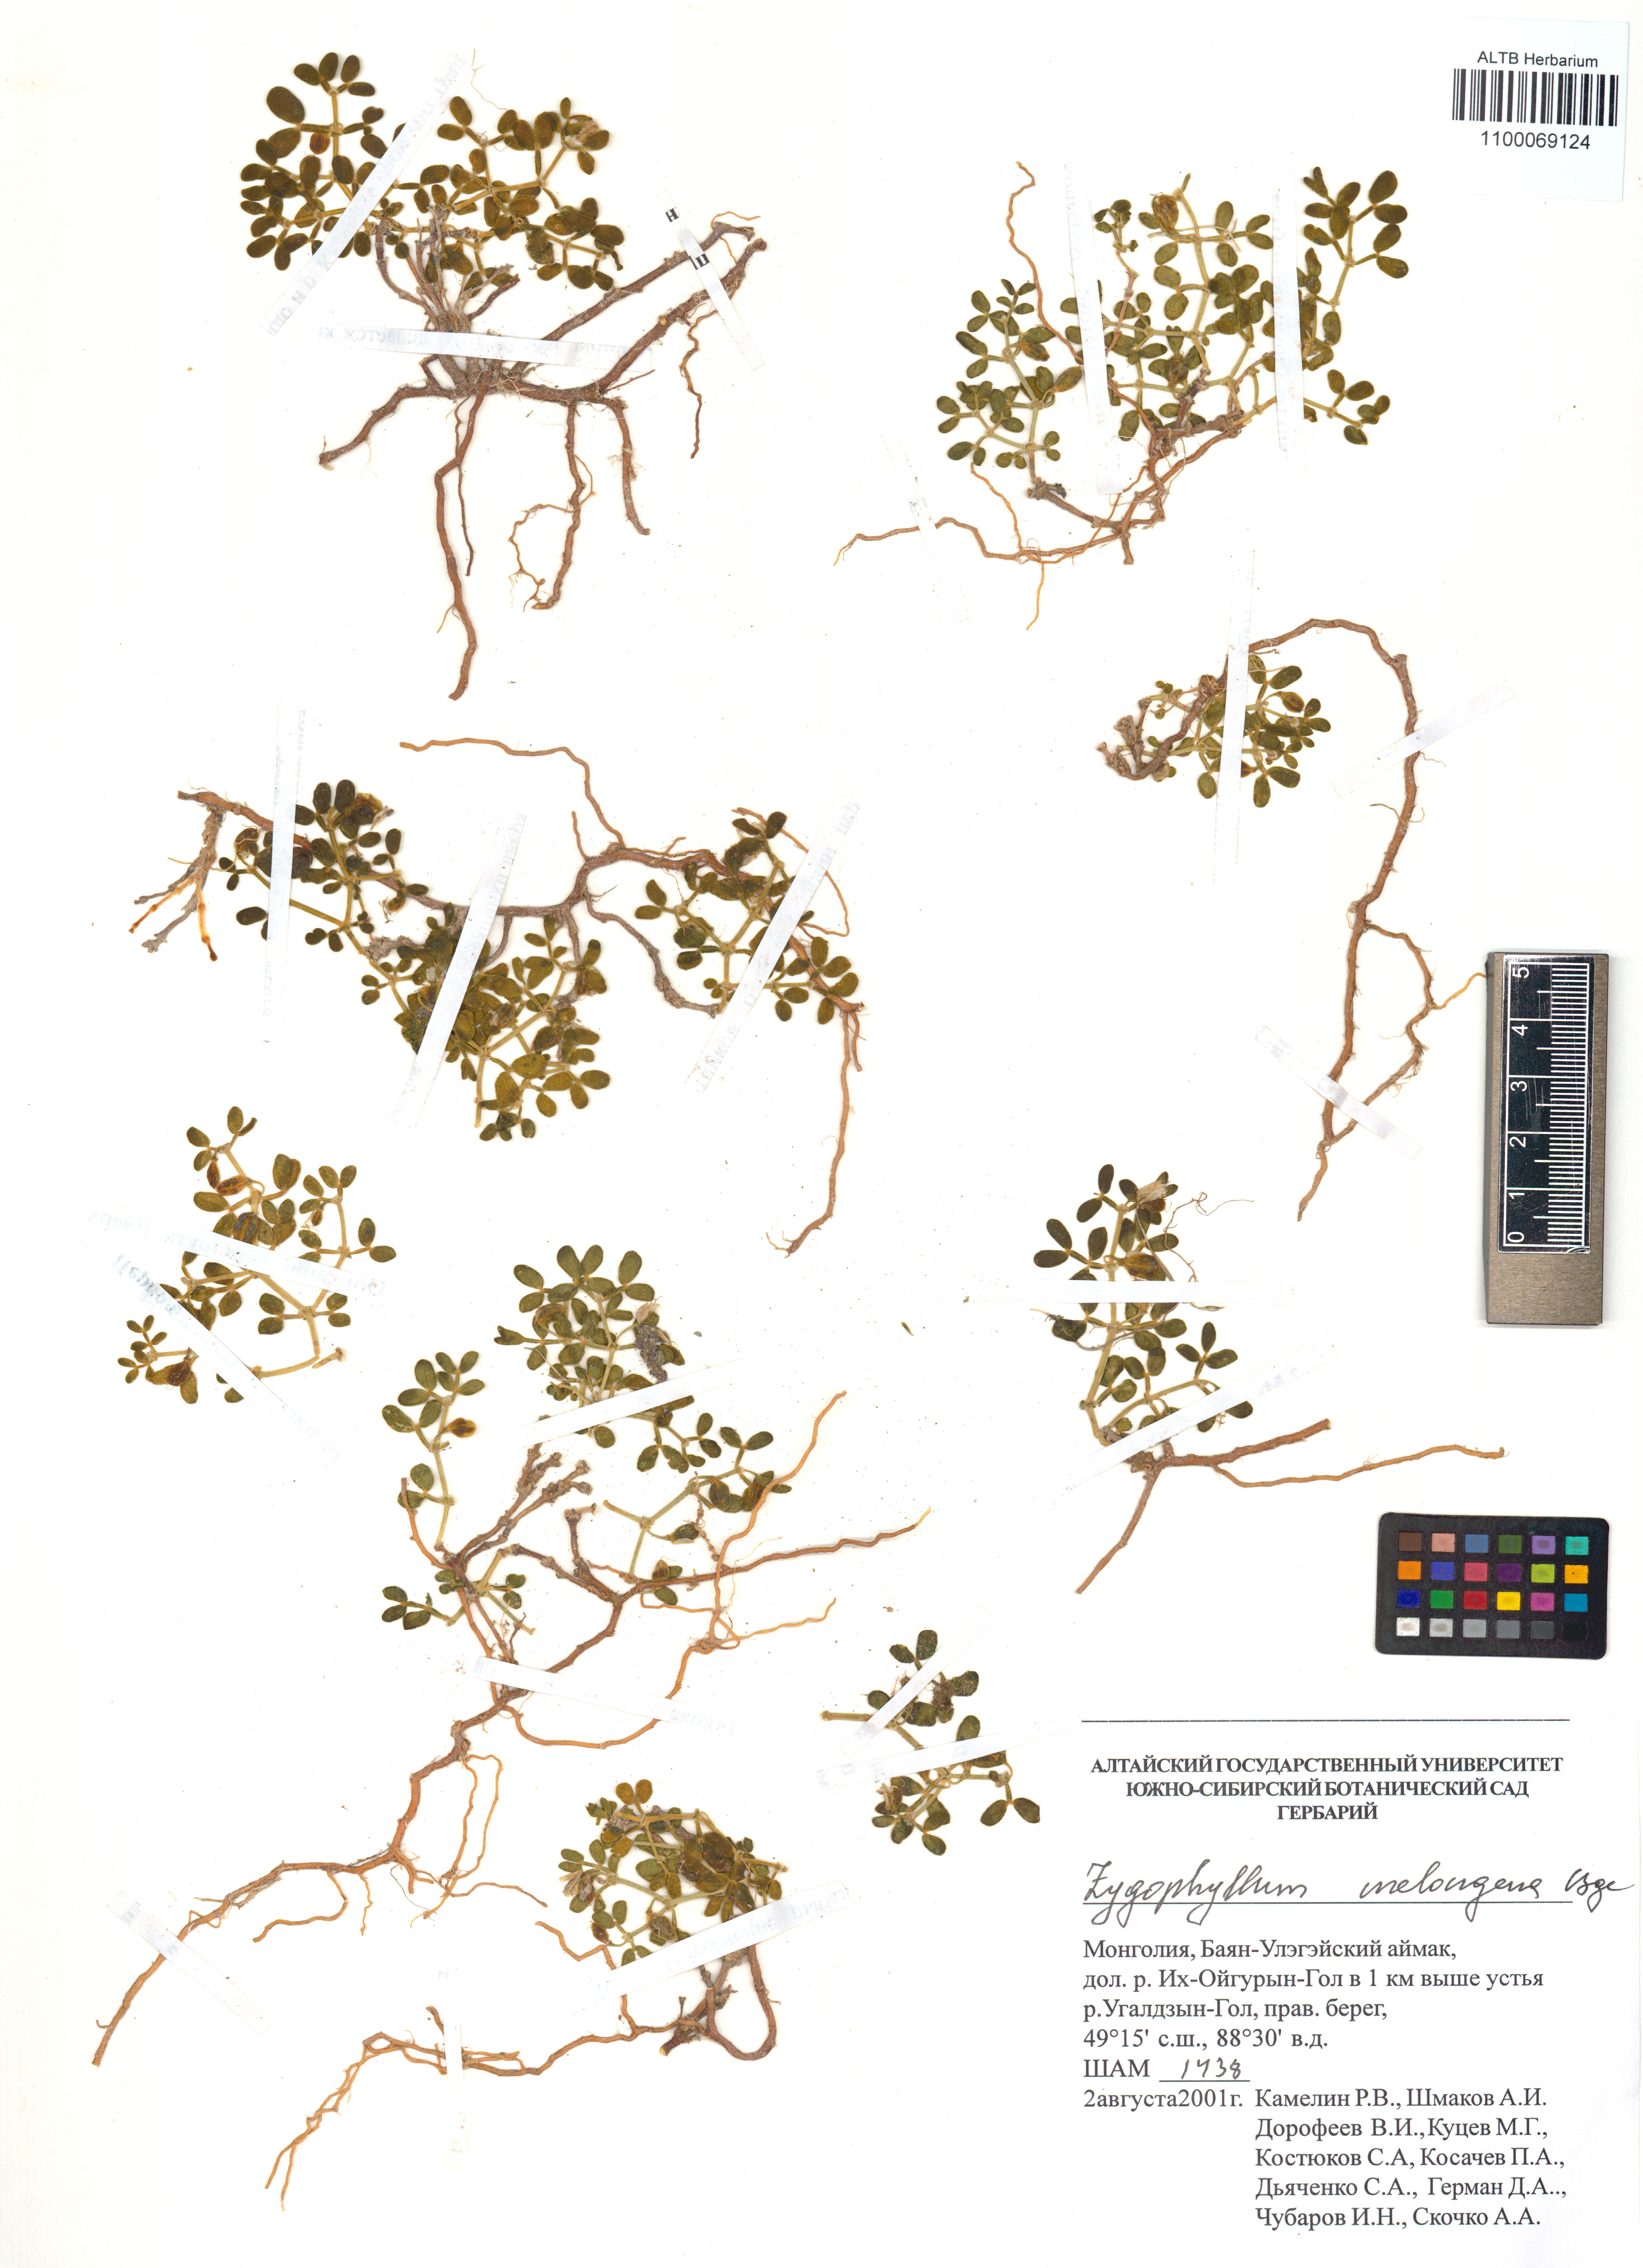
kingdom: Plantae
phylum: Tracheophyta
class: Magnoliopsida
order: Zygophyllales
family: Zygophyllaceae
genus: Zygophyllum
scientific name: Zygophyllum melongena
